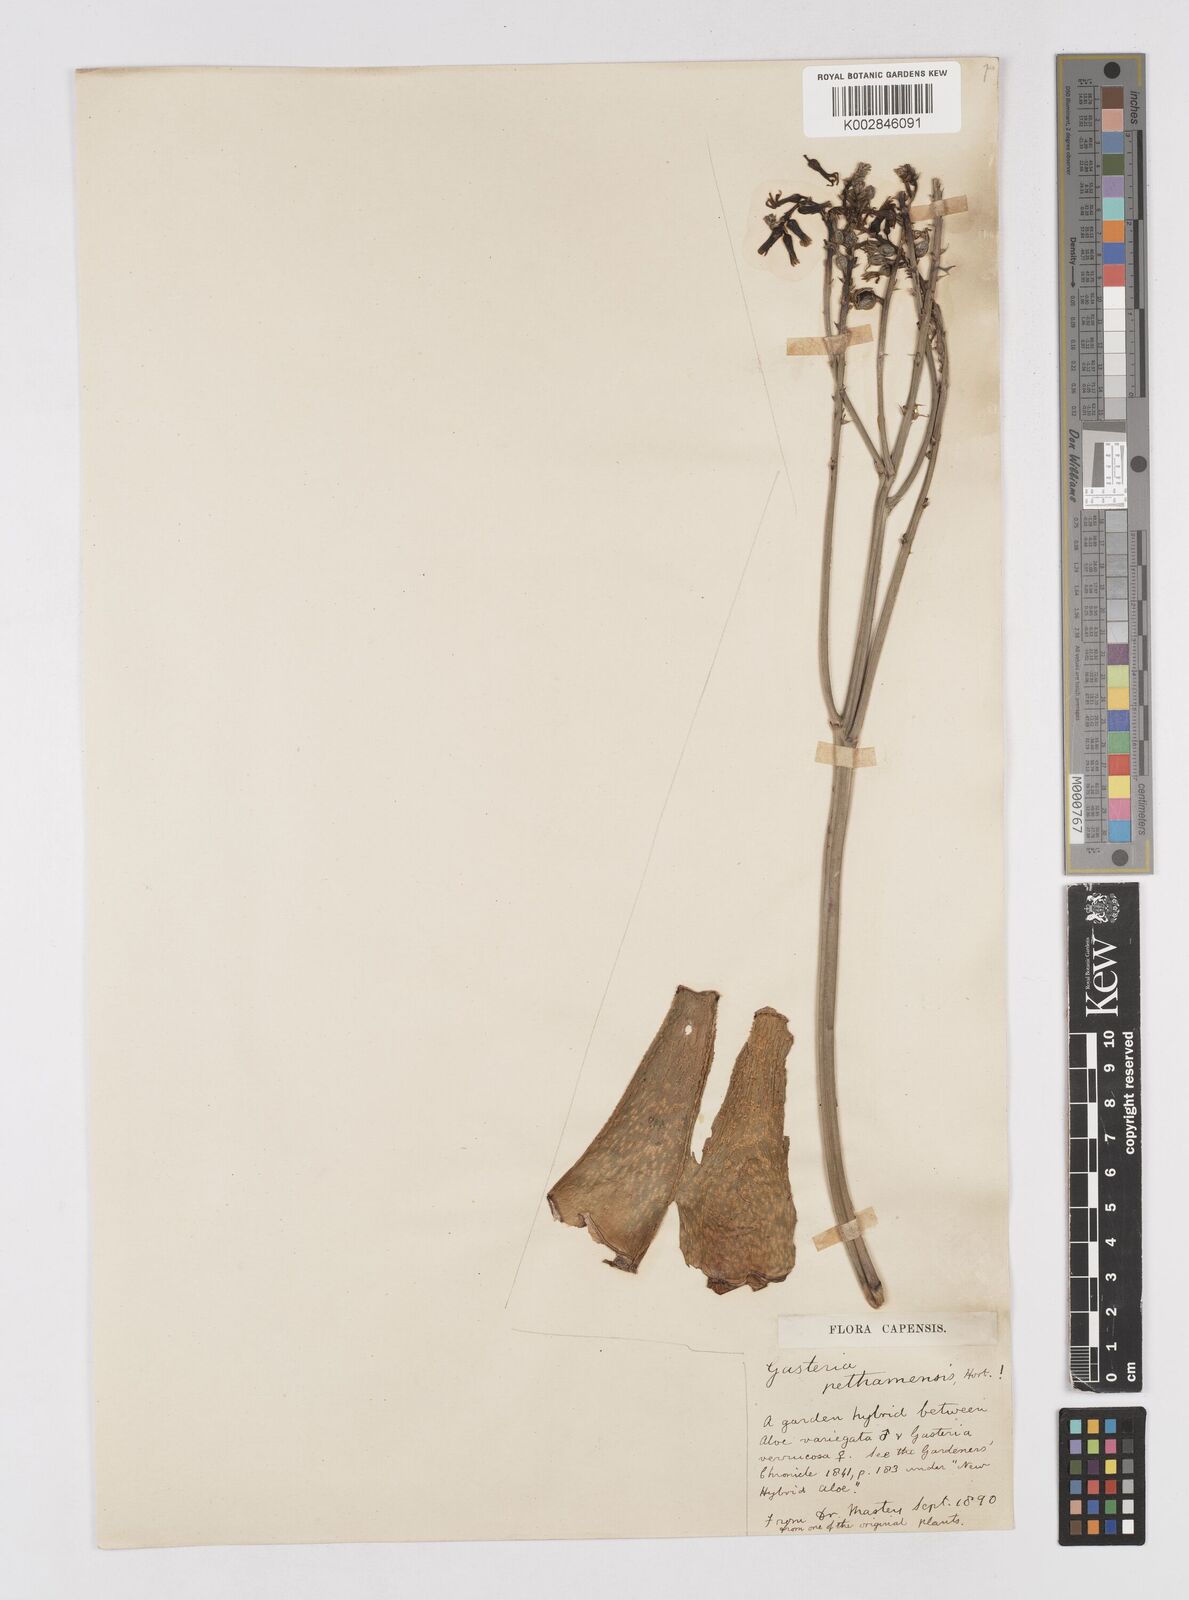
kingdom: Plantae
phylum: Tracheophyta
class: Liliopsida
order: Asparagales
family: Asphodelaceae
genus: Gastonialoe
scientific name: Gastonialoe pethamensis
